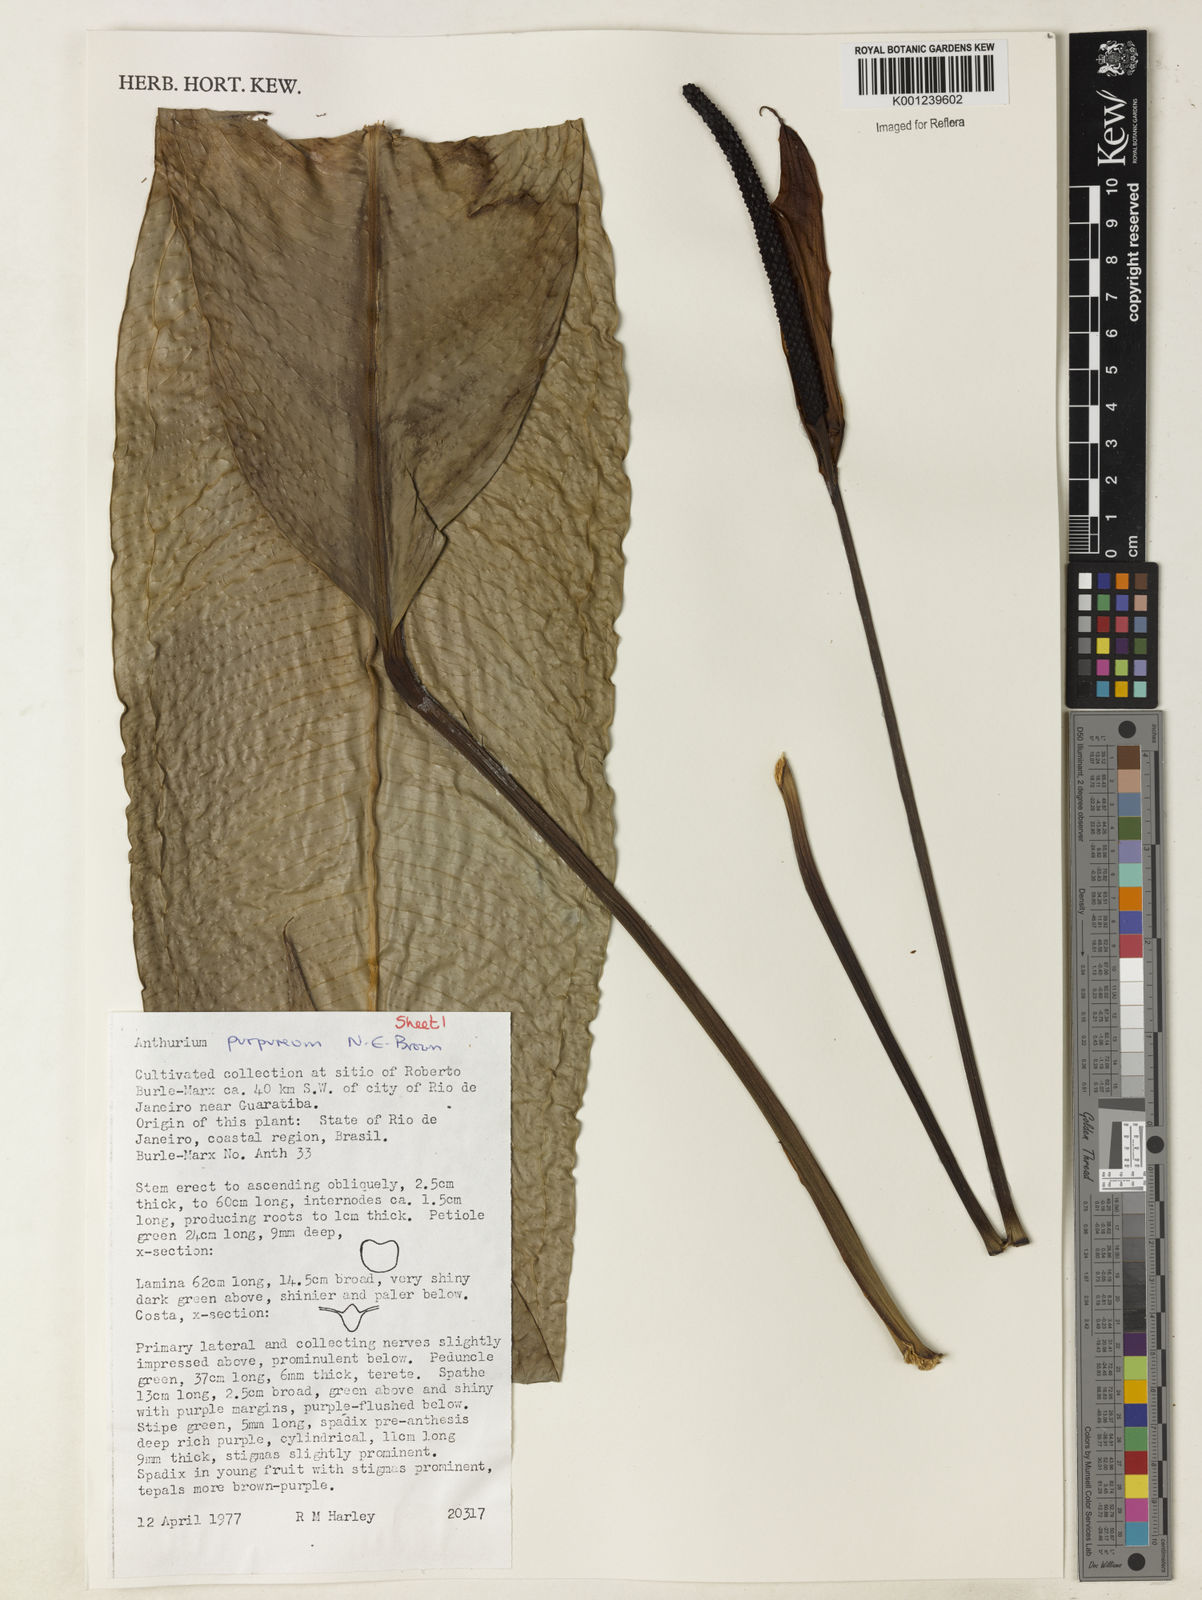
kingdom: Plantae
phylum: Tracheophyta
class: Liliopsida
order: Alismatales
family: Araceae
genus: Anthurium
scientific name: Anthurium purpureum
